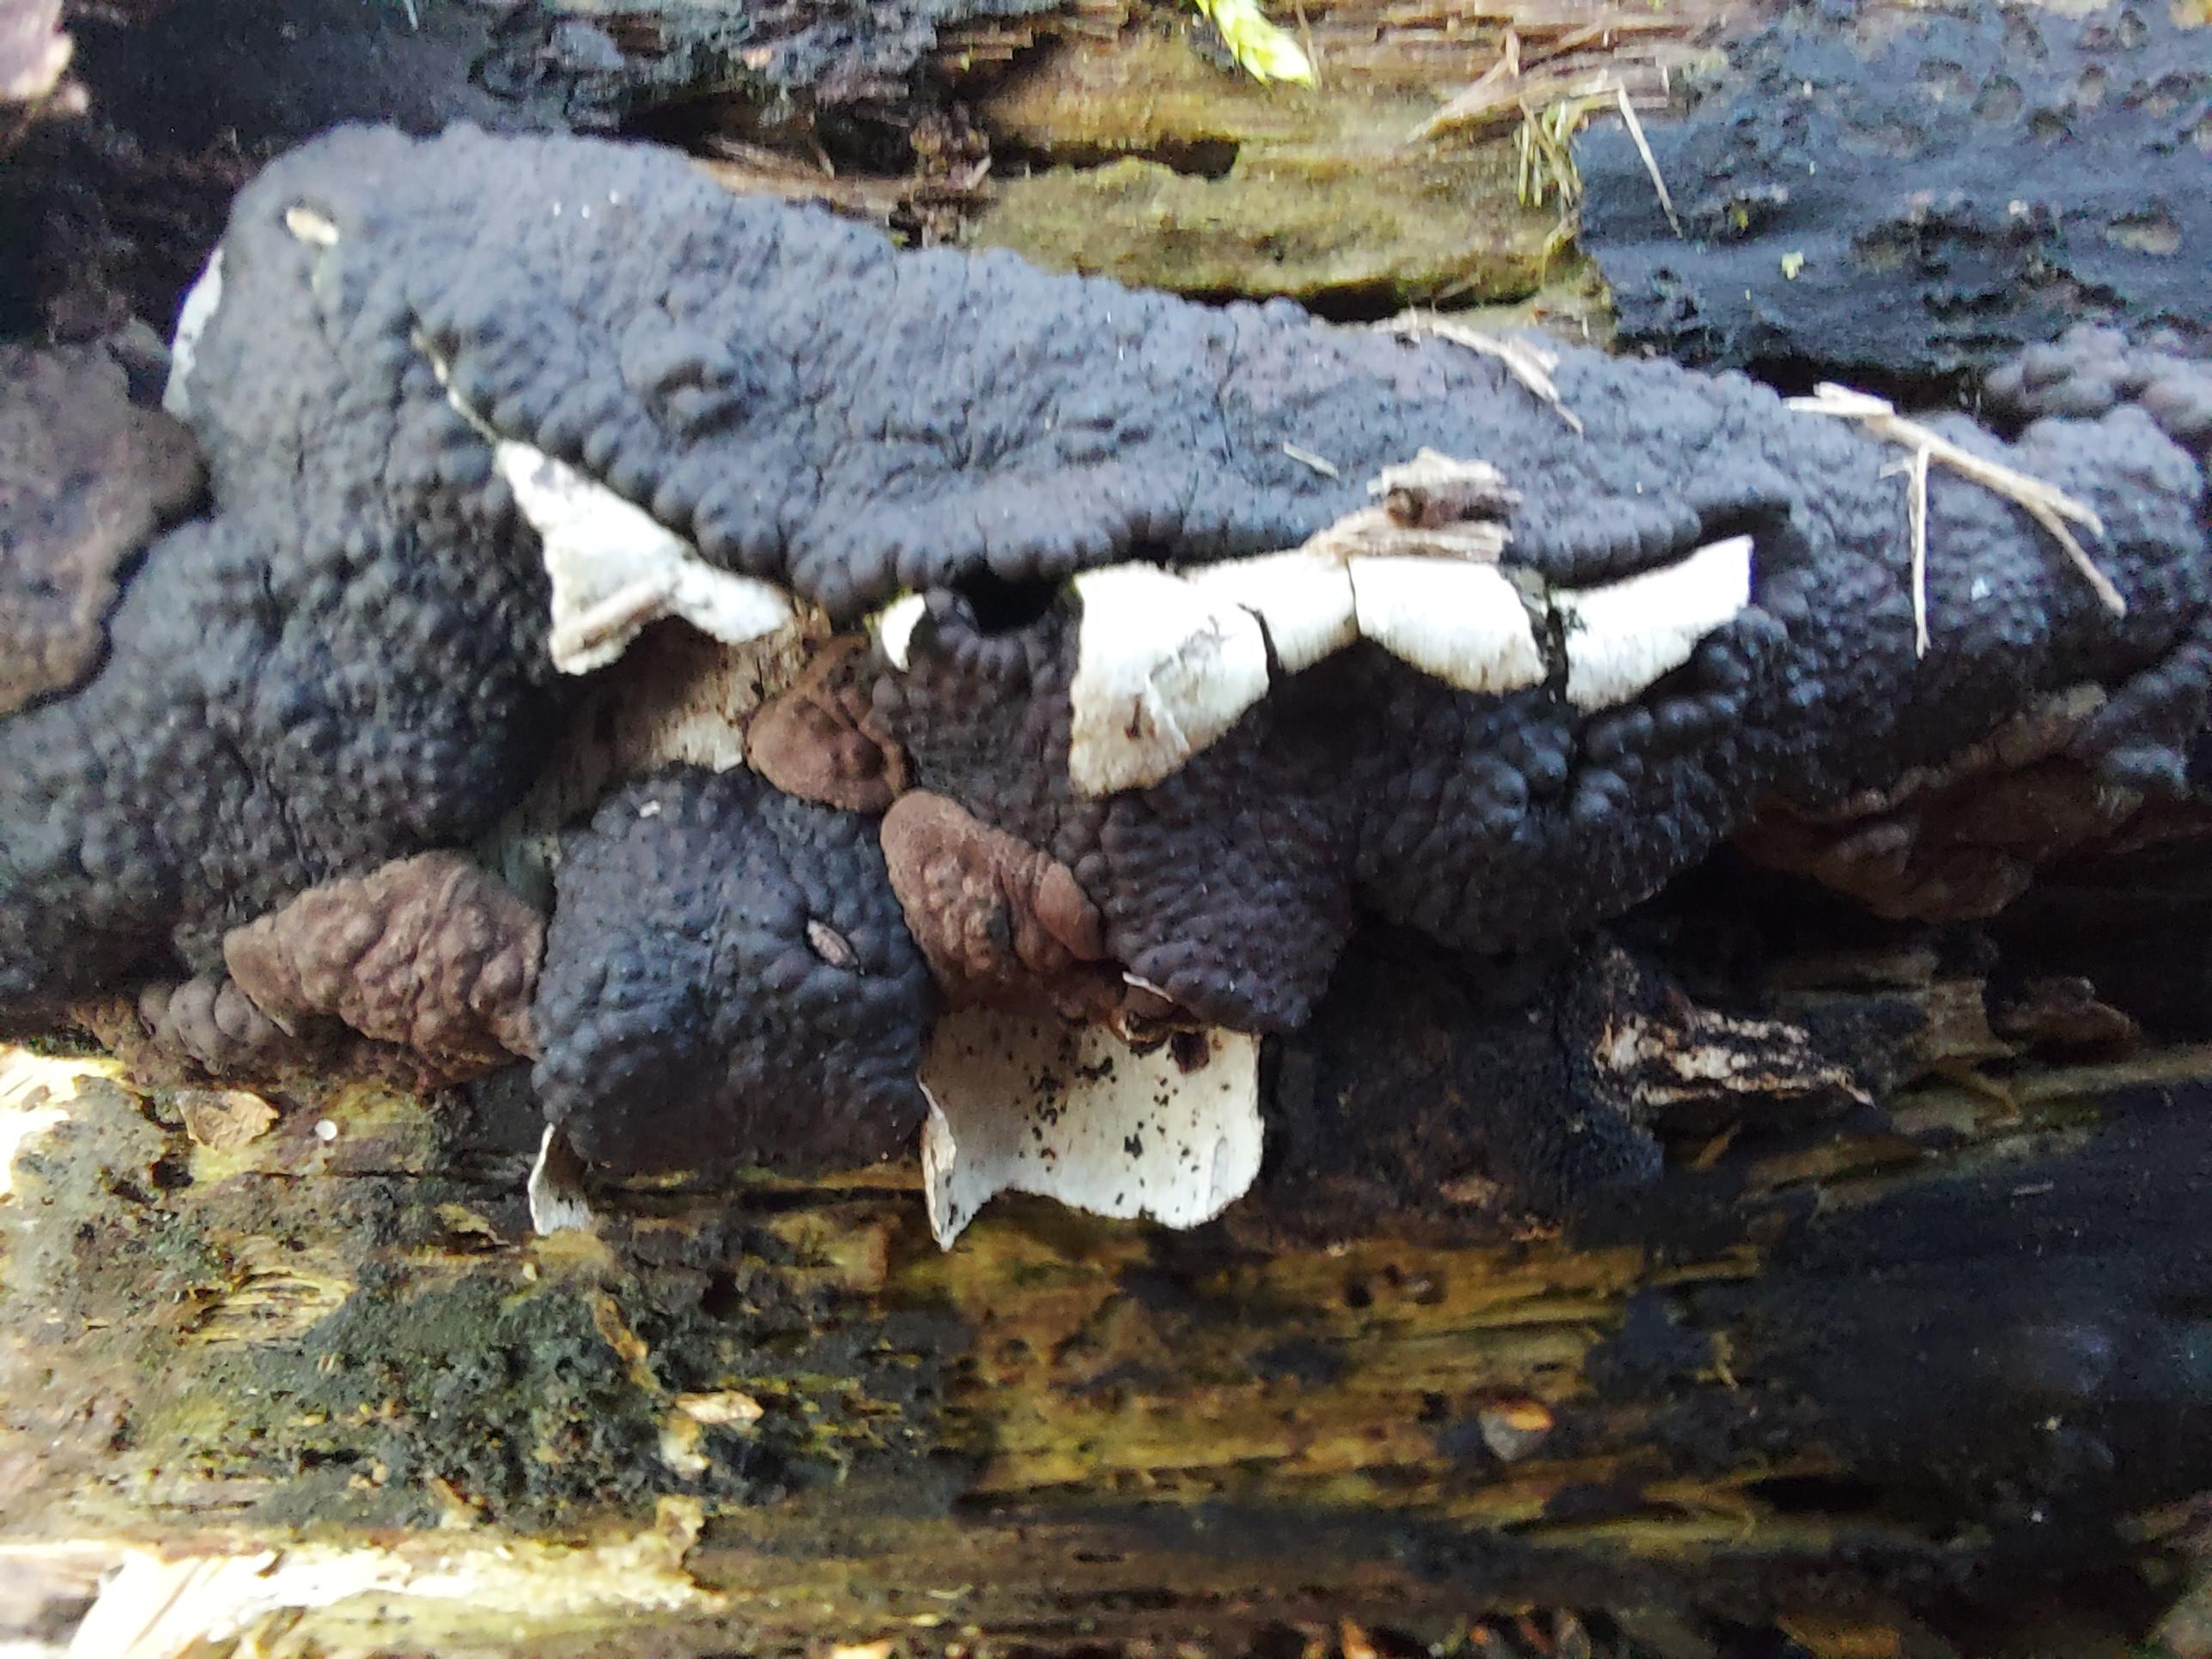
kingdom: Fungi
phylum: Ascomycota
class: Sordariomycetes
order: Xylariales
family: Hypoxylaceae
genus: Jackrogersella
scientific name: Jackrogersella multiformis
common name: foranderlig kulbær
